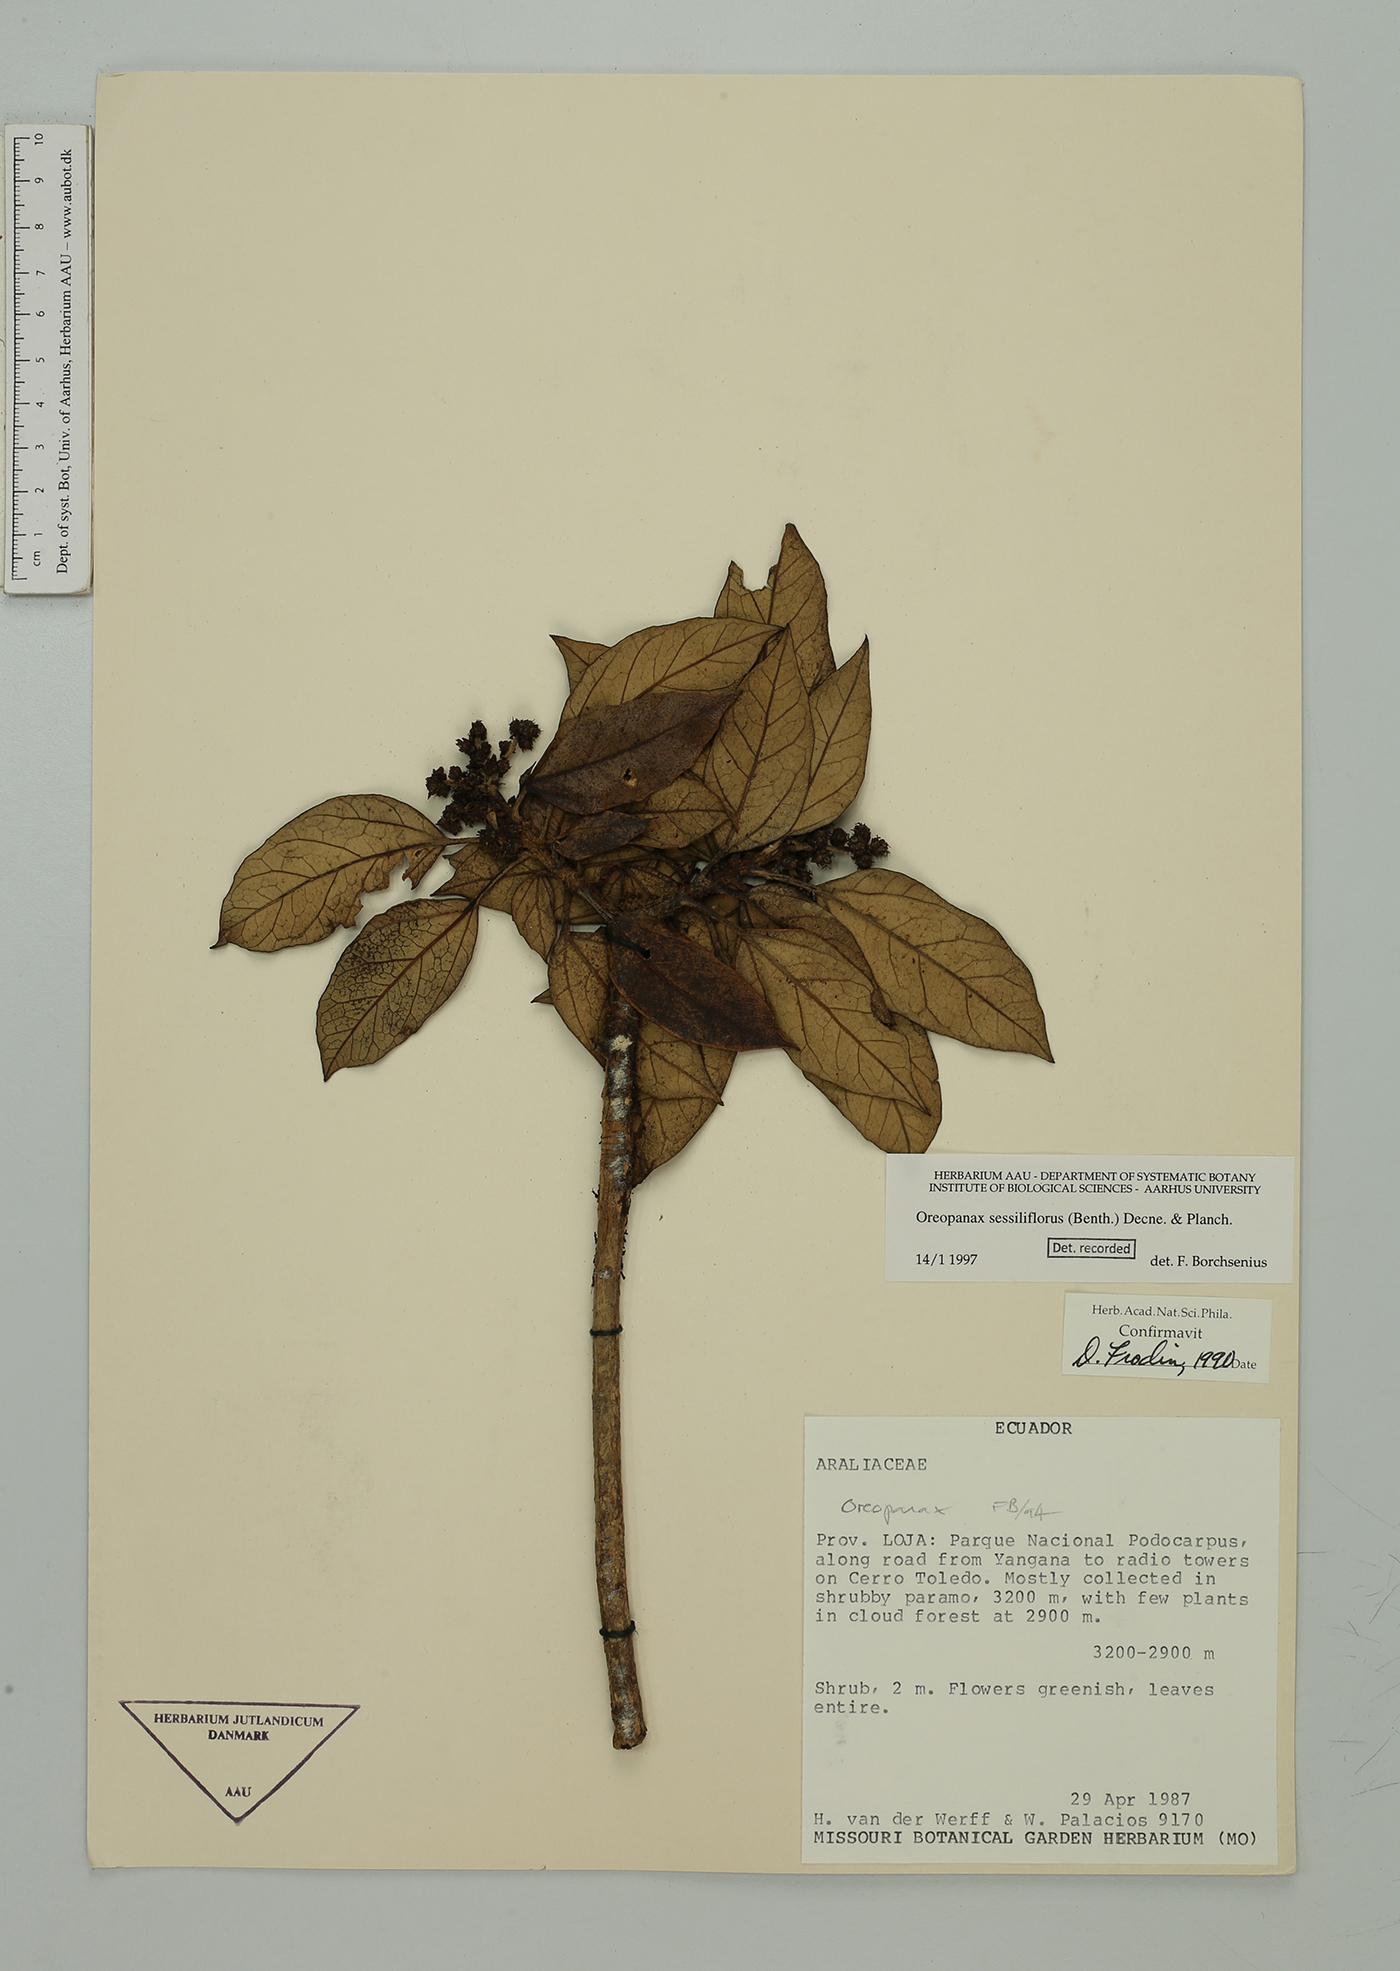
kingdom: Plantae
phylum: Tracheophyta
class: Magnoliopsida
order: Apiales
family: Araliaceae
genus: Oreopanax
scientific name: Oreopanax sessiliflorus
